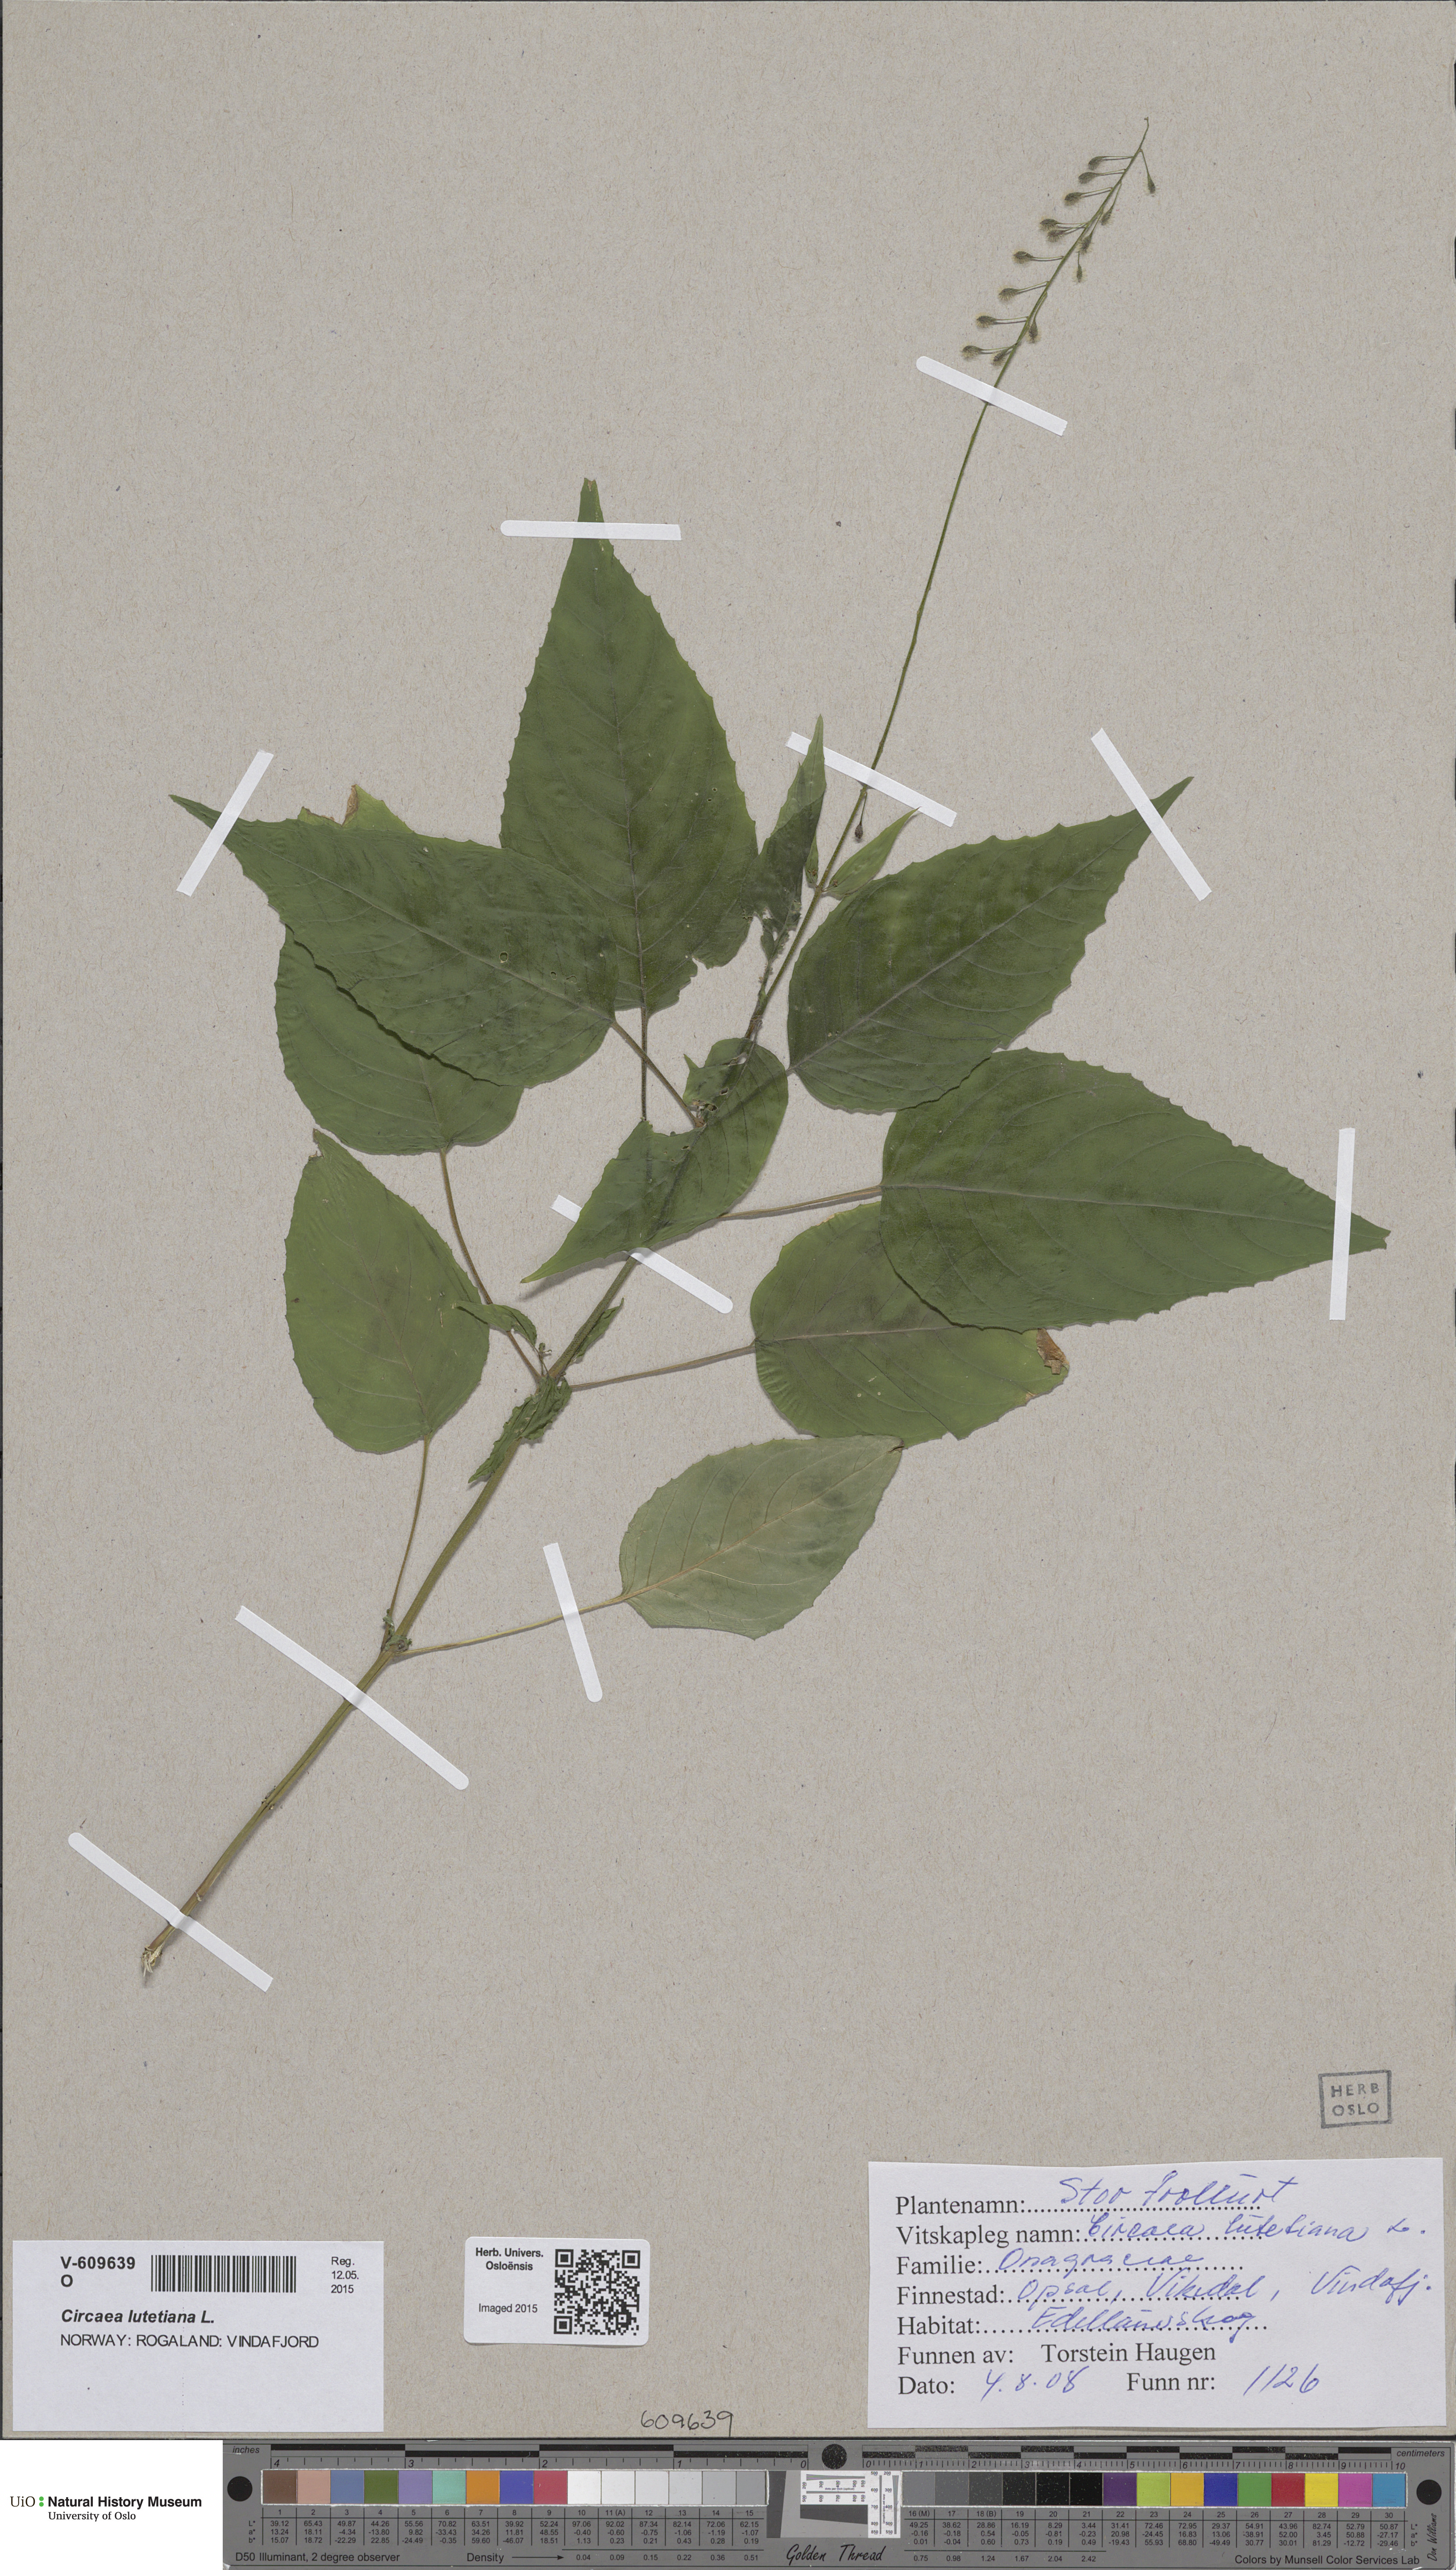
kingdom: Plantae
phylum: Tracheophyta
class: Magnoliopsida
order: Myrtales
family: Onagraceae
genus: Circaea
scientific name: Circaea lutetiana
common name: Enchanter's-nightshade
